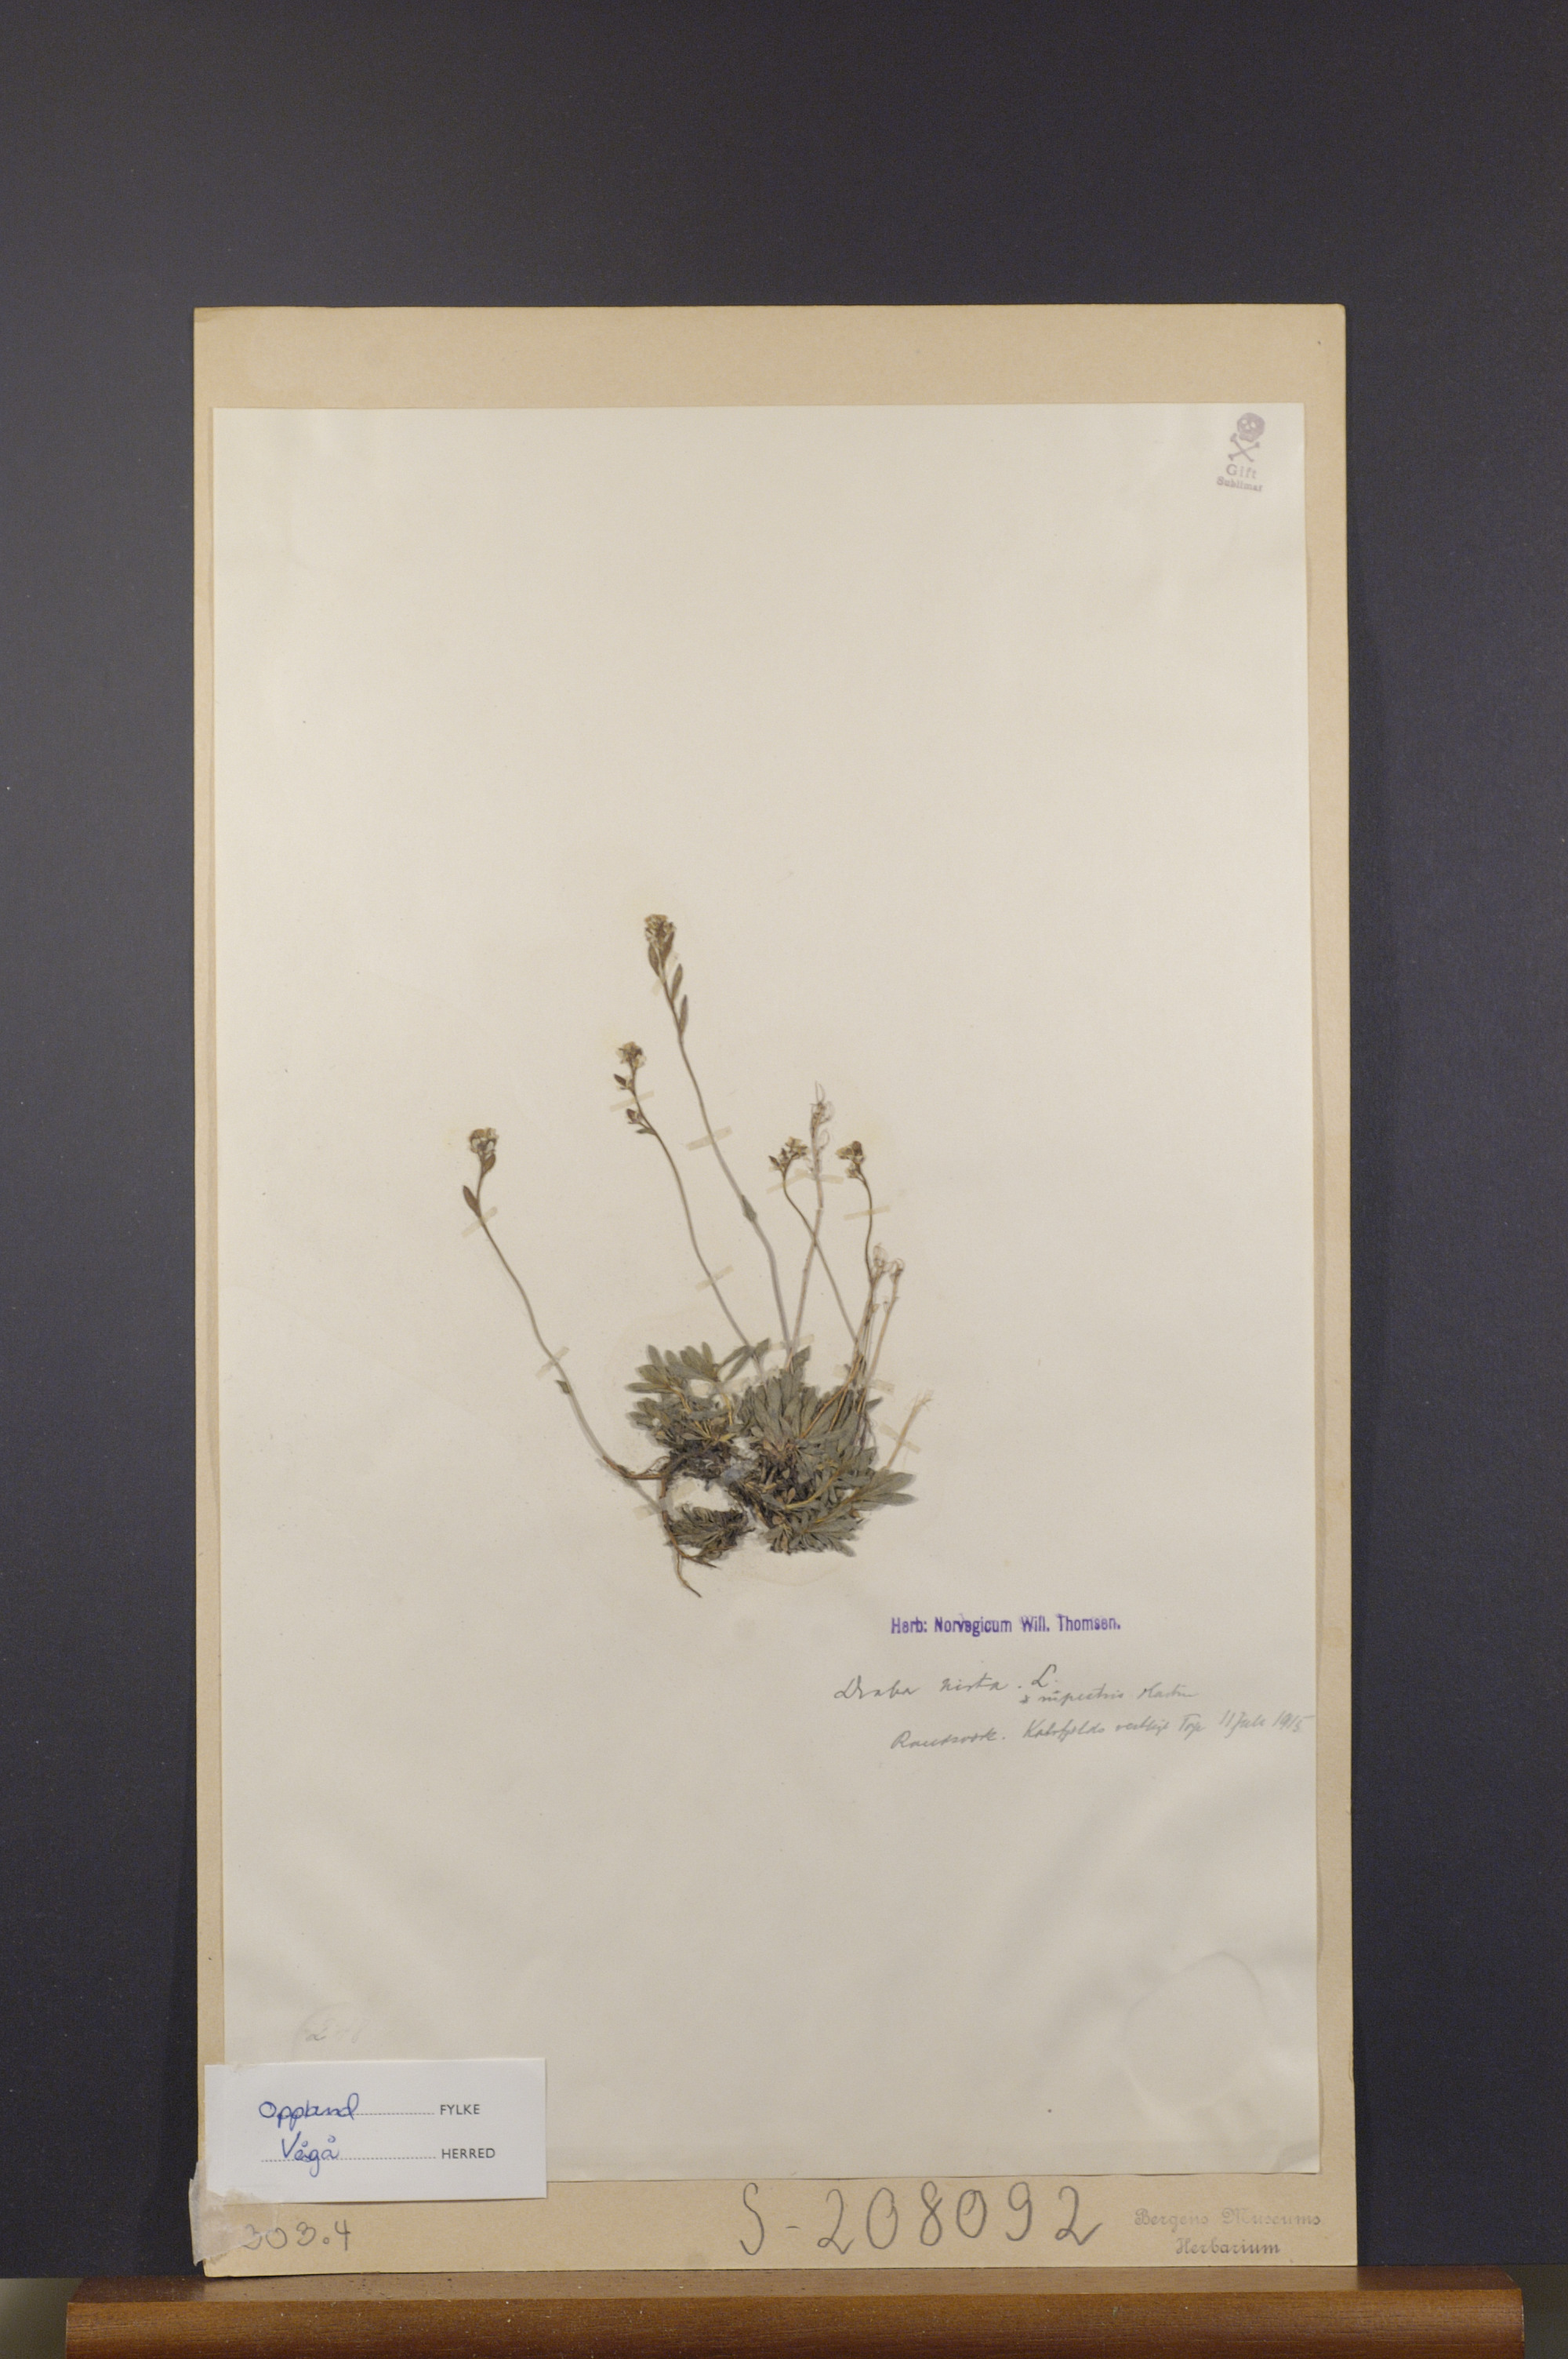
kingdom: Plantae
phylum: Tracheophyta
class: Magnoliopsida
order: Brassicales
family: Brassicaceae
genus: Draba
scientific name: Draba norvegica
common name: Rock whitlowgrass
